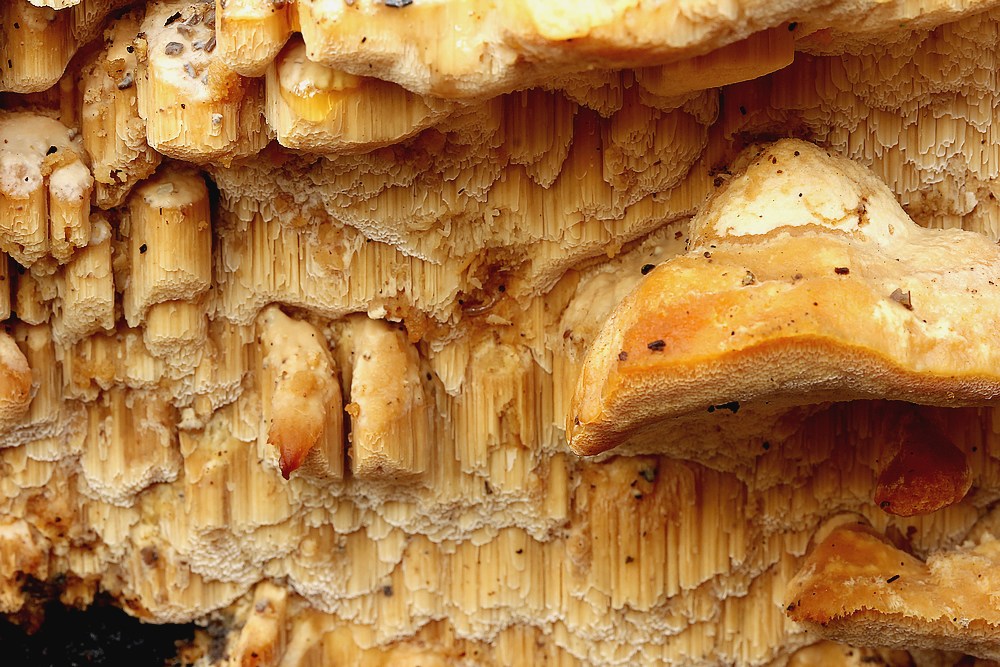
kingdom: Fungi
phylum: Basidiomycota
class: Agaricomycetes
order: Polyporales
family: Steccherinaceae
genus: Antrodiella
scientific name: Antrodiella mentschulensis
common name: abrikosporesvamp
